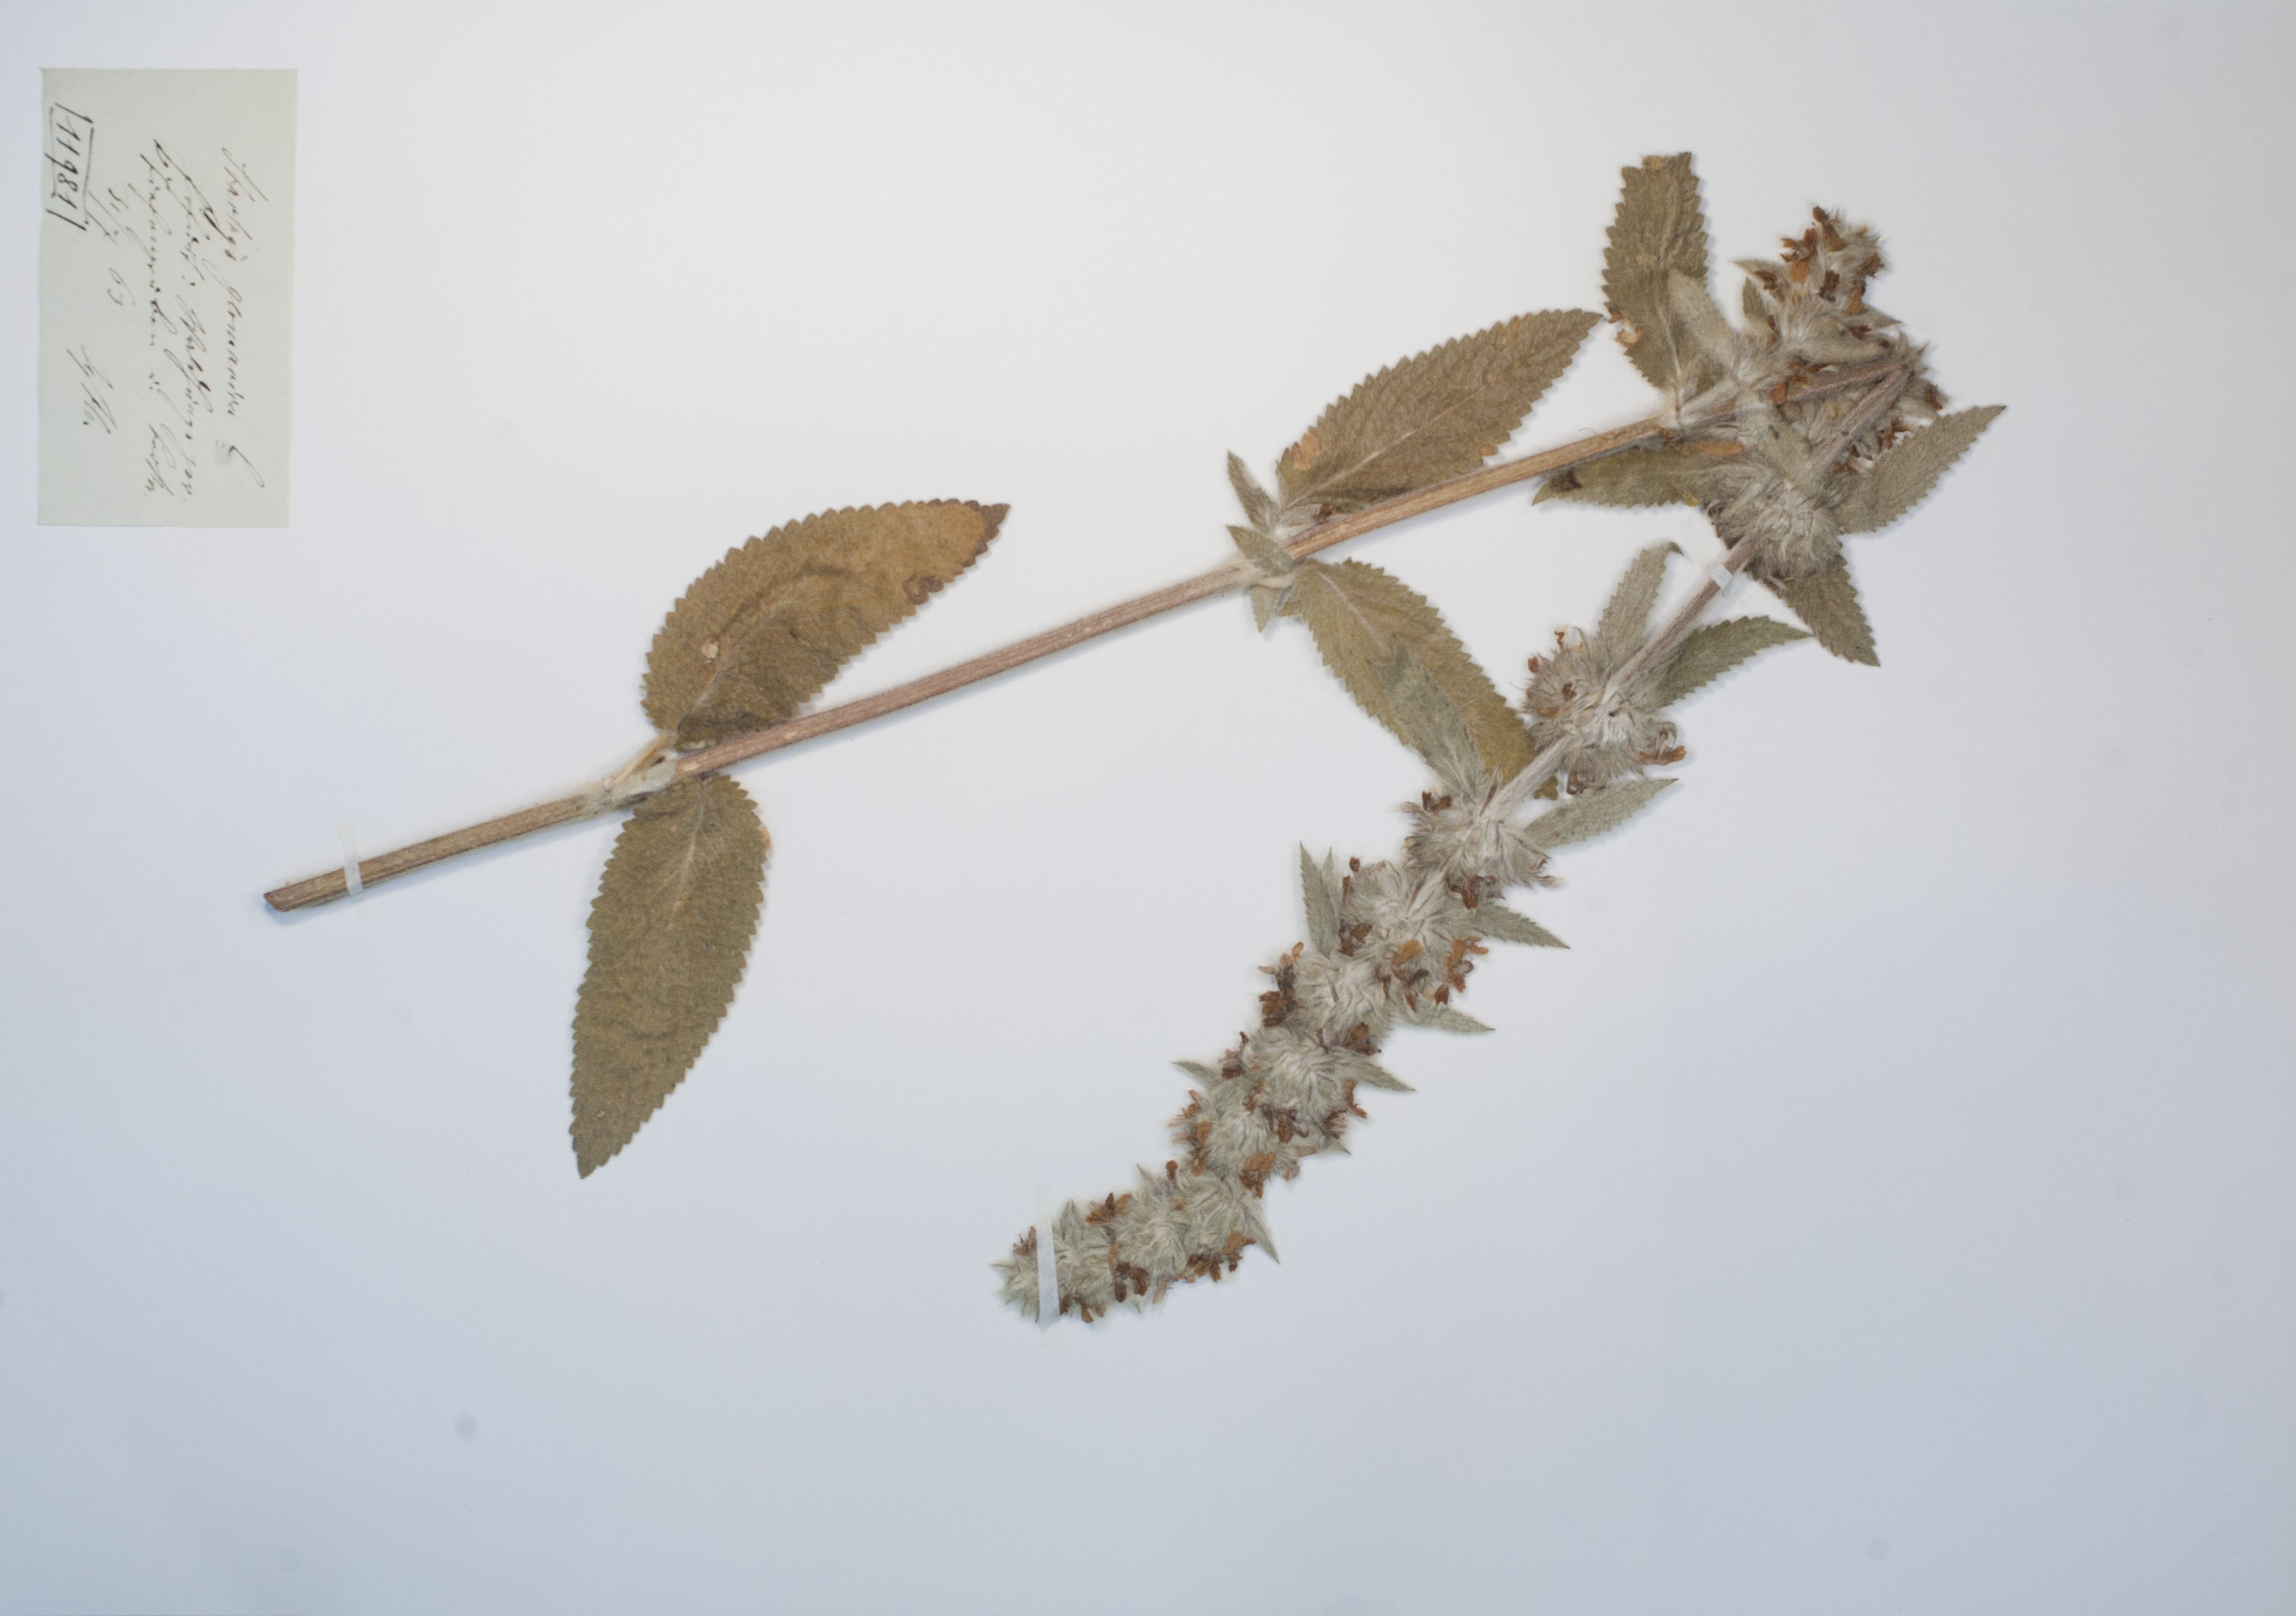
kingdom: Plantae
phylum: Tracheophyta
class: Magnoliopsida
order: Lamiales
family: Lamiaceae
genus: Stachys
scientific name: Stachys germanica
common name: Downy woundwort
